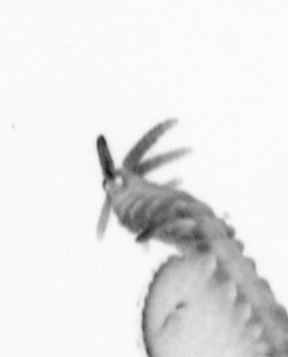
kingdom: Animalia
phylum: Annelida
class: Polychaeta
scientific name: Polychaeta
